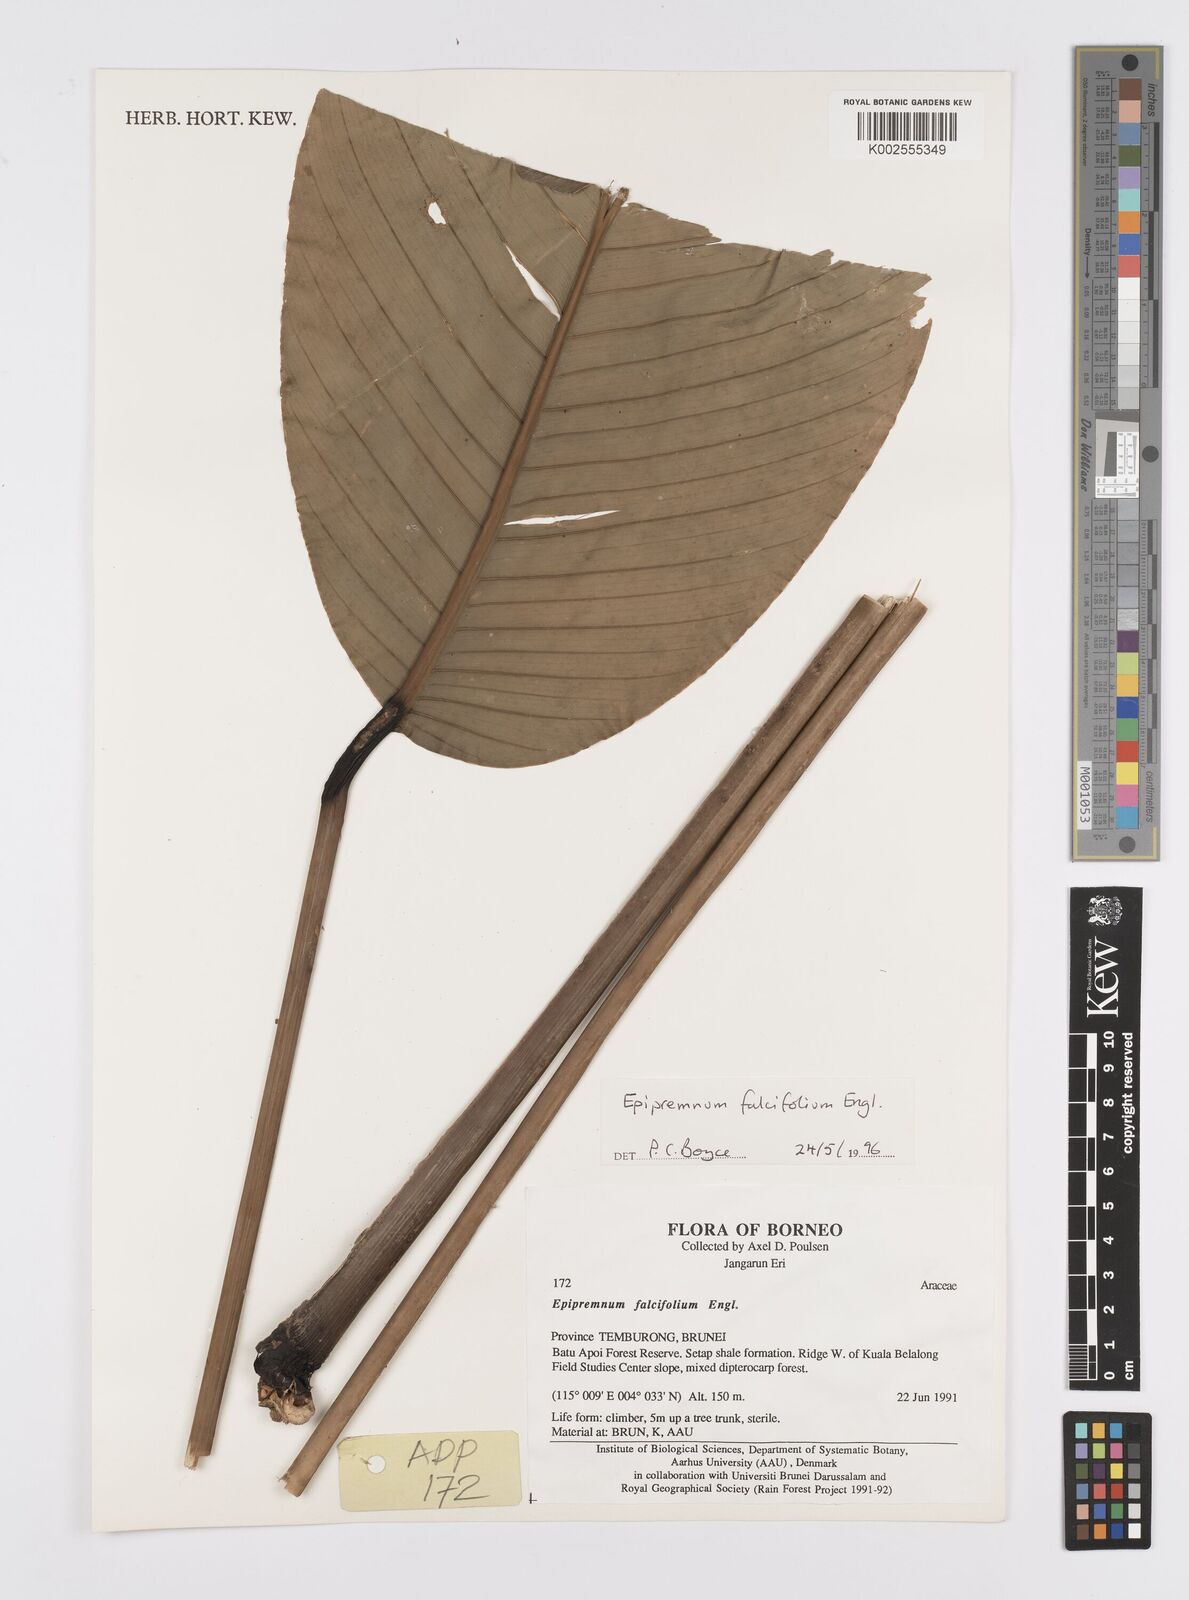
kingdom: Plantae
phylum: Tracheophyta
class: Liliopsida
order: Alismatales
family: Araceae
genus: Epipremnum
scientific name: Epipremnum falcifolium
